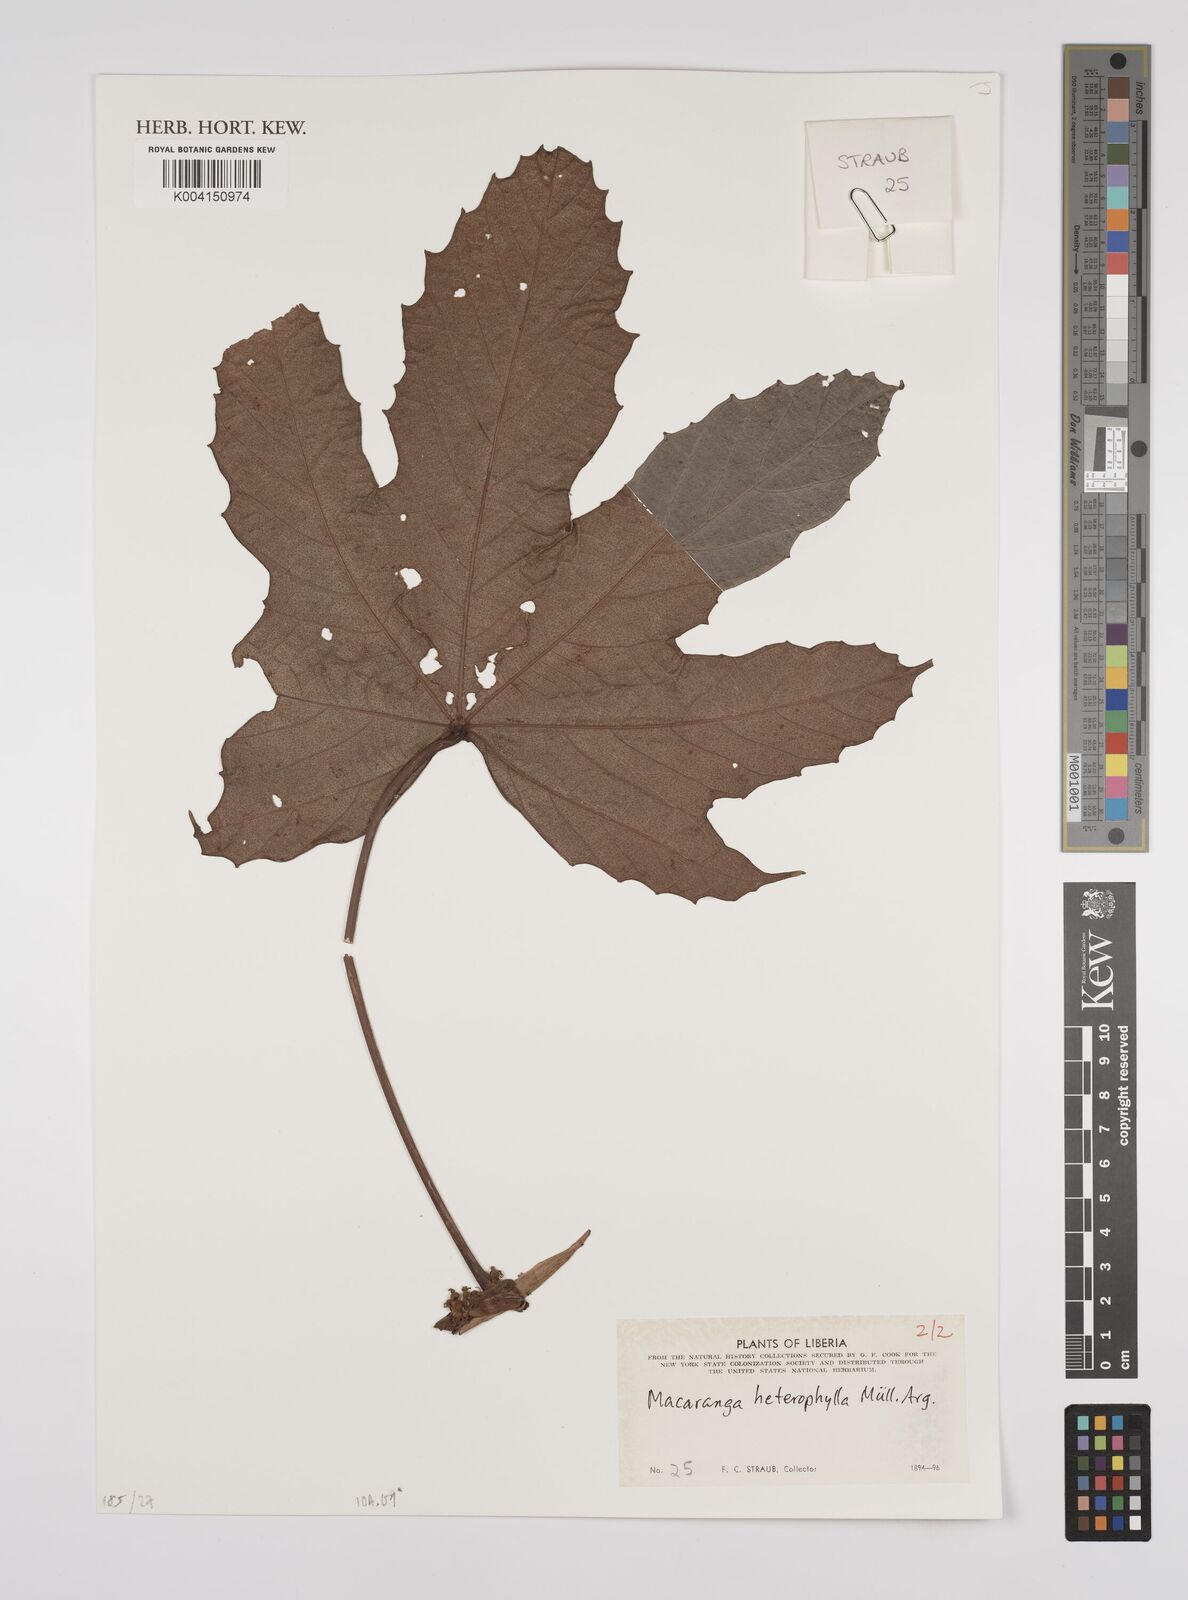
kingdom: Plantae
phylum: Tracheophyta
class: Magnoliopsida
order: Malpighiales
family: Euphorbiaceae
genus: Macaranga
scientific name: Macaranga heterophylla
